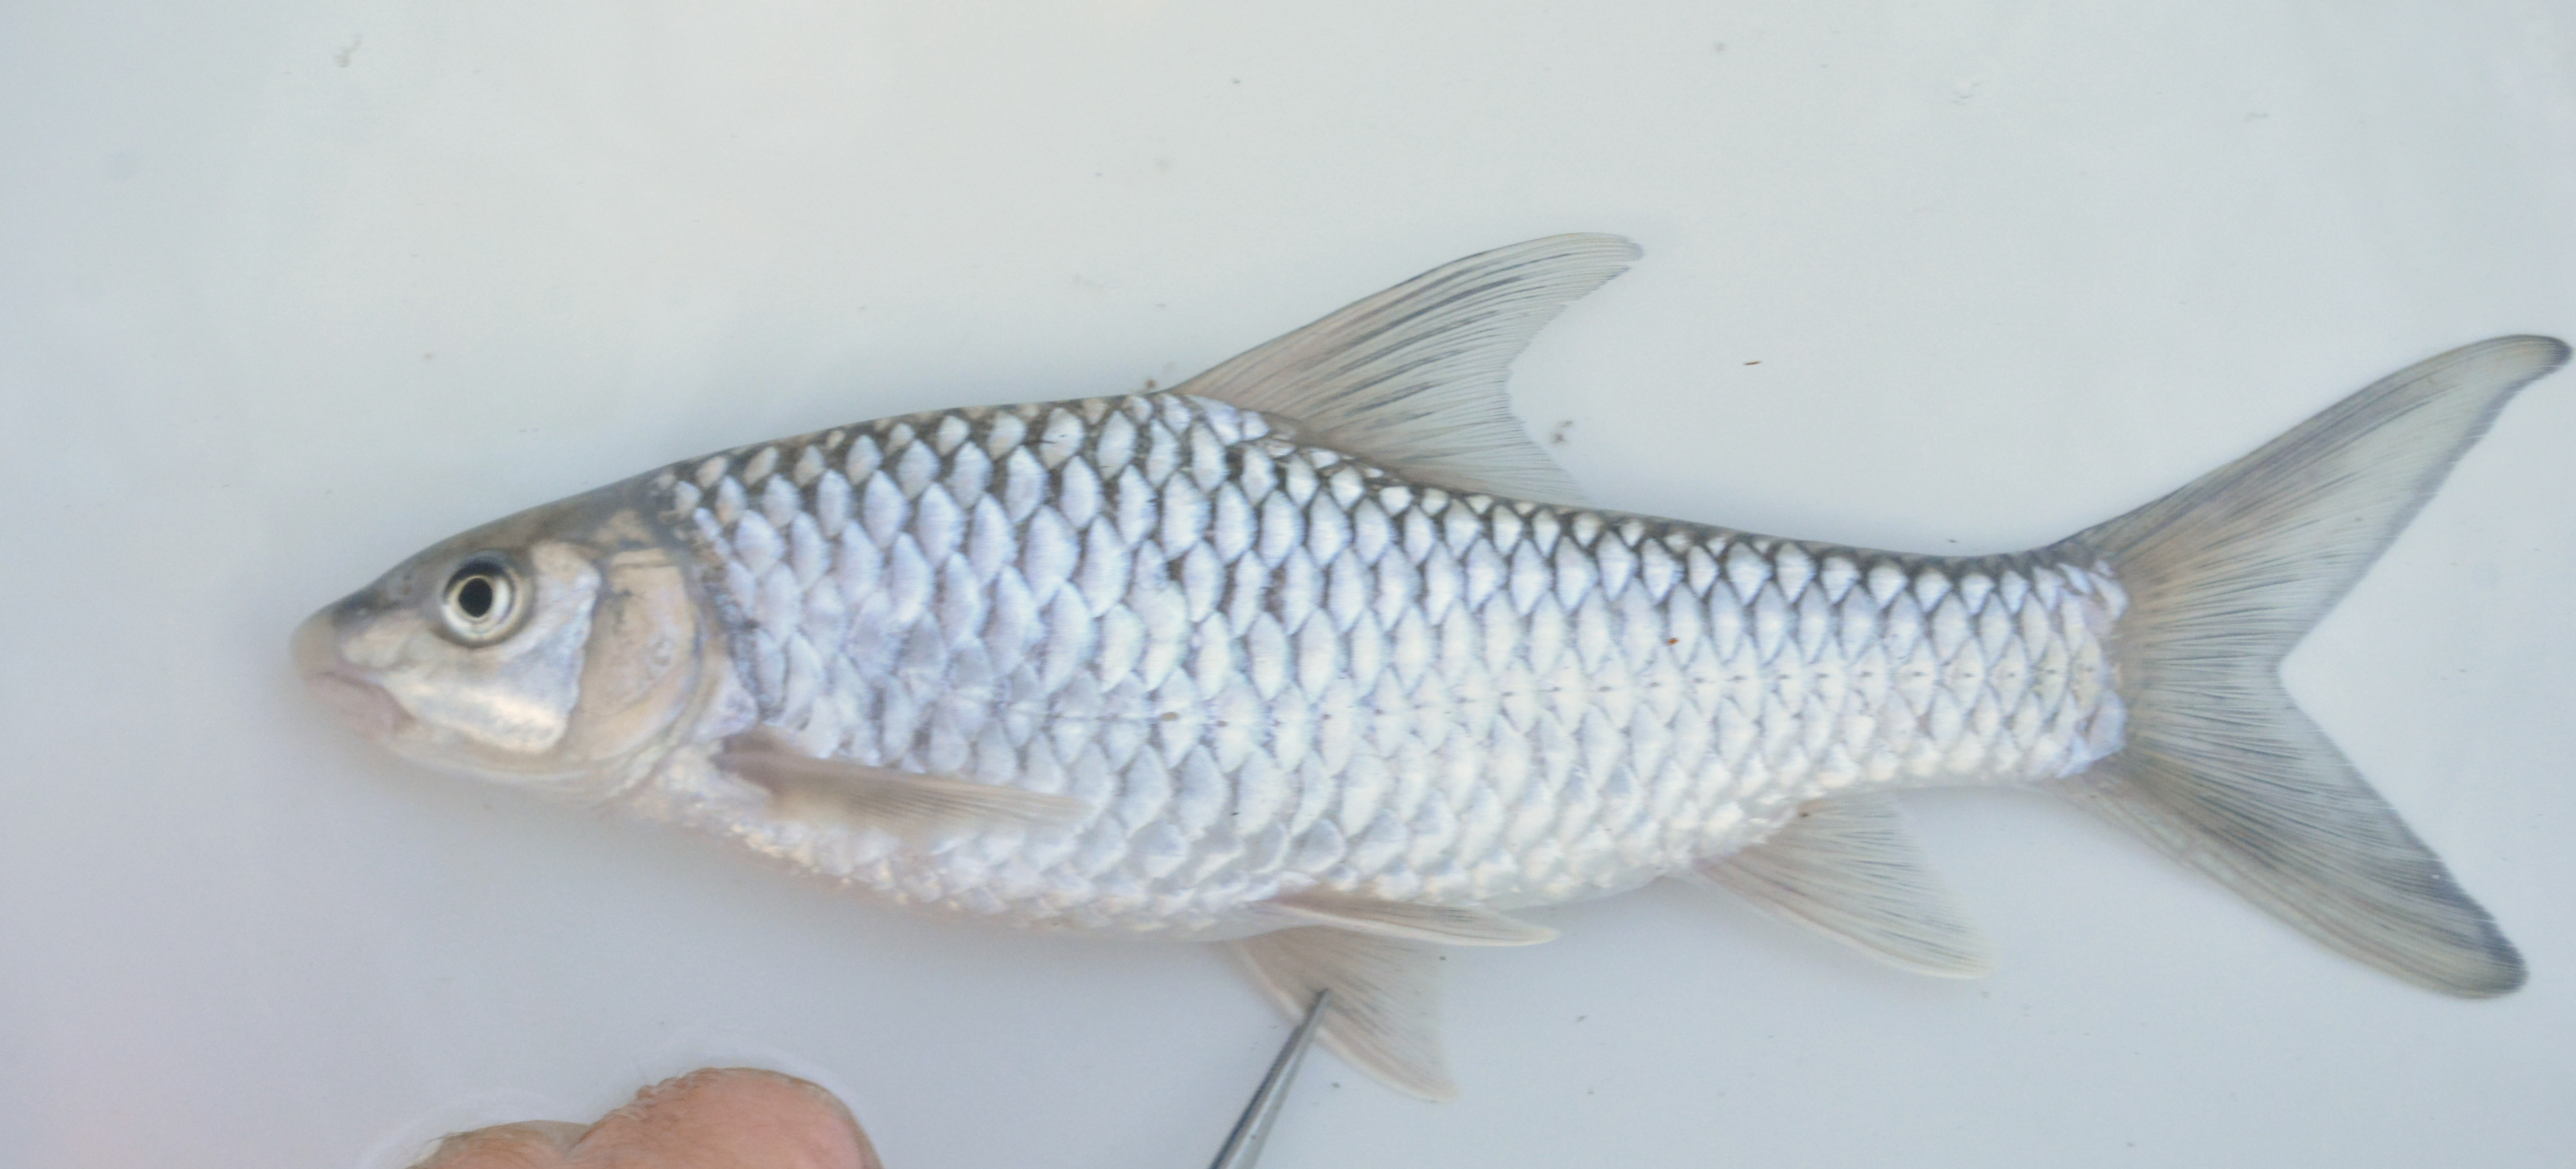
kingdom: Animalia
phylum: Chordata
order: Cypriniformes
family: Cyprinidae
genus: Labeobarbus
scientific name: Labeobarbus codringtonii
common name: Upper zambezi yellowfish
